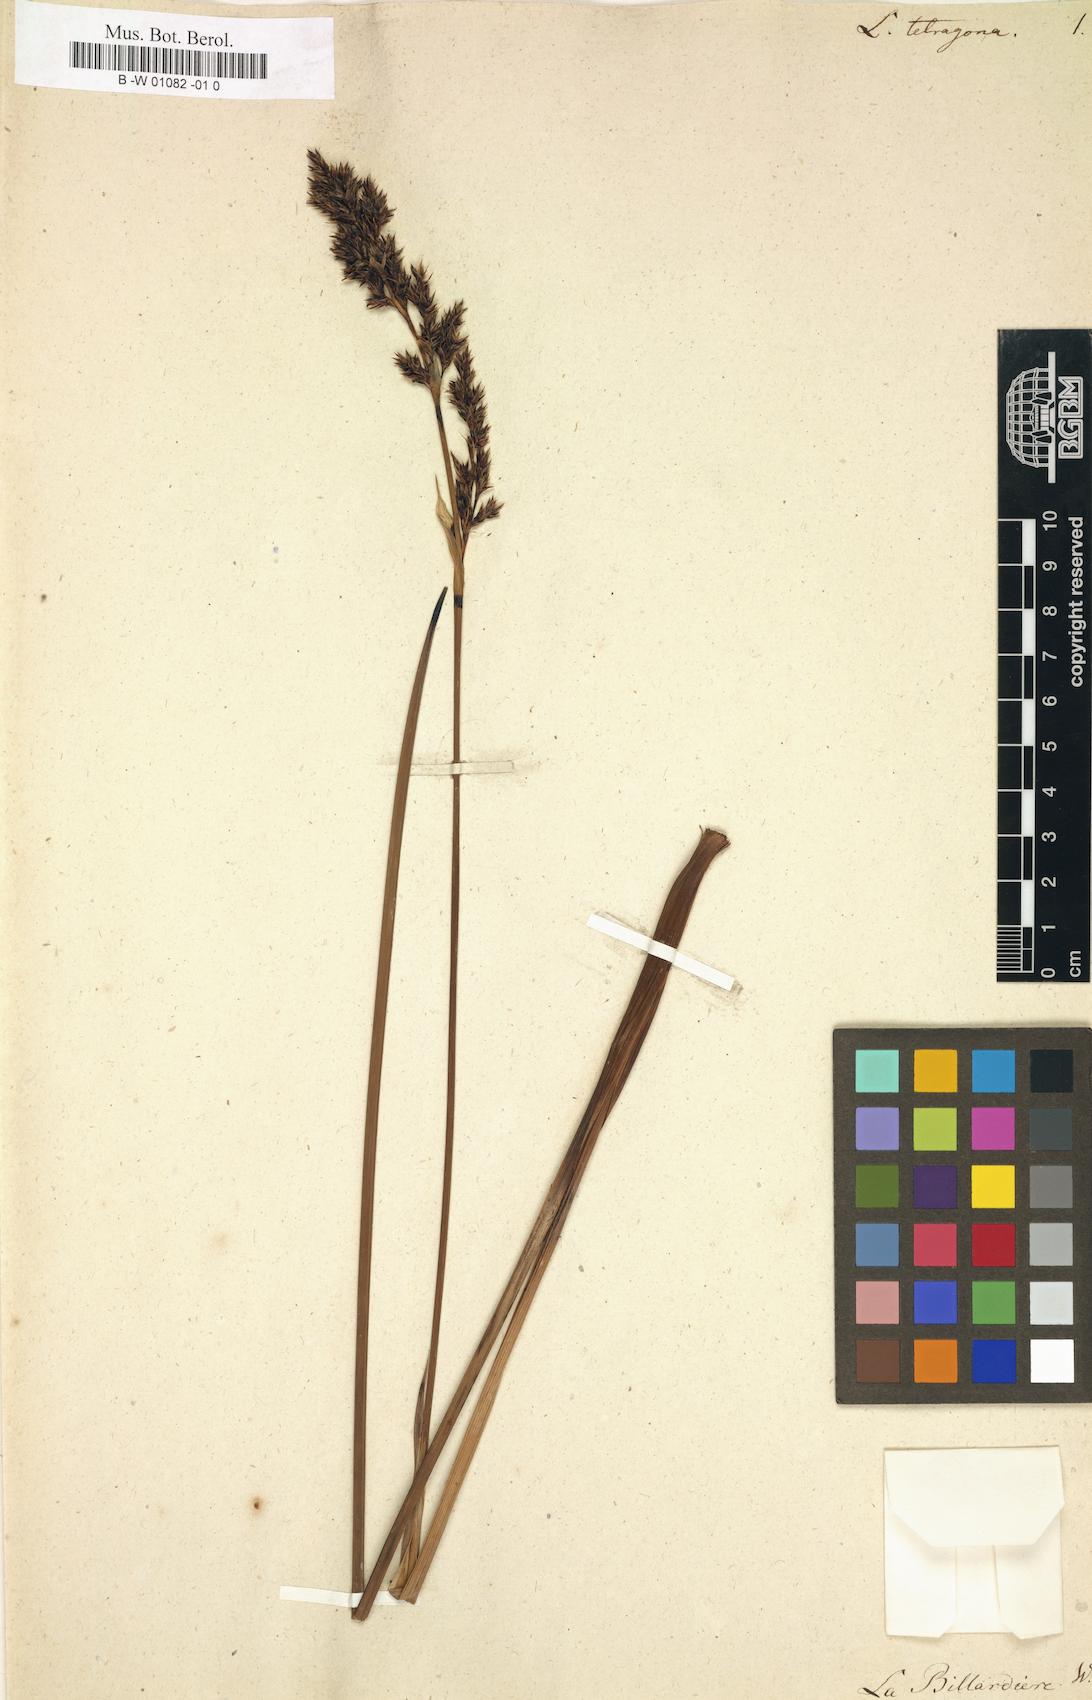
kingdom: Plantae
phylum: Tracheophyta
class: Liliopsida
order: Poales
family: Cyperaceae
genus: Machaerina
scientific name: Machaerina tetragona
